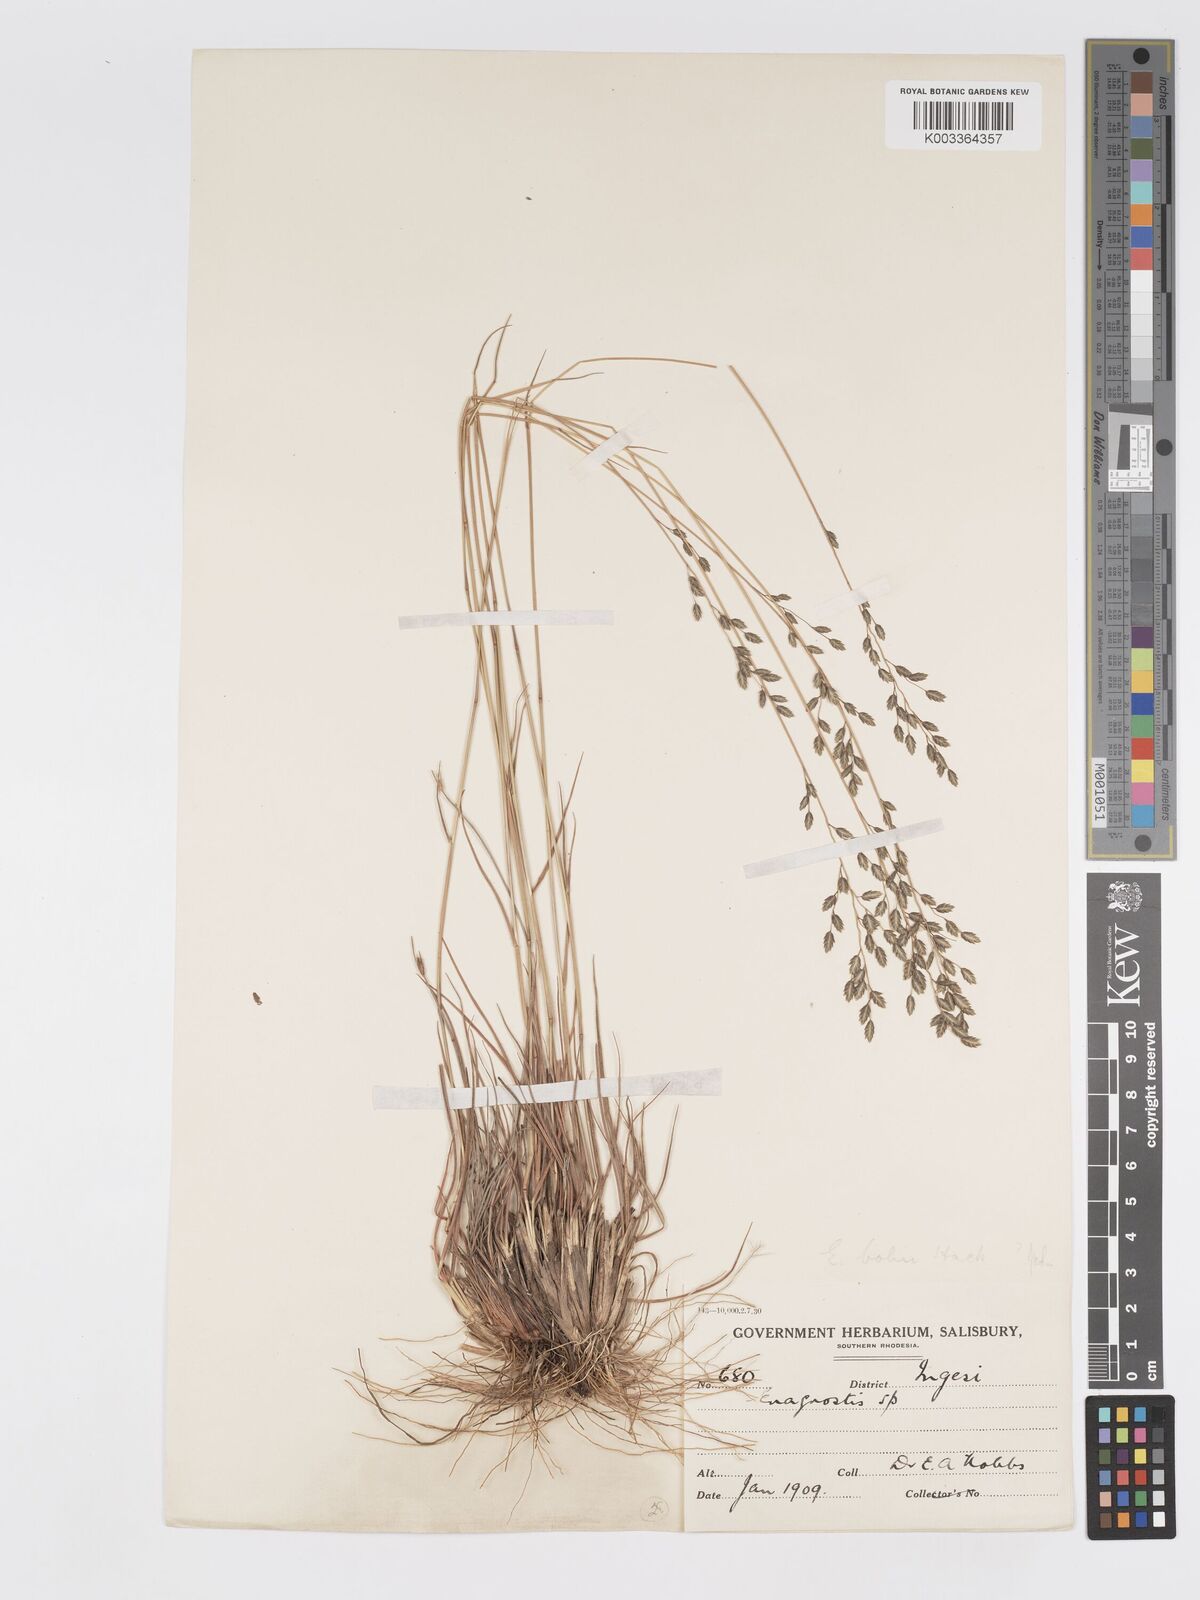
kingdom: Plantae
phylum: Tracheophyta
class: Liliopsida
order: Poales
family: Poaceae
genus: Eragrostis
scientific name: Eragrostis racemosa
